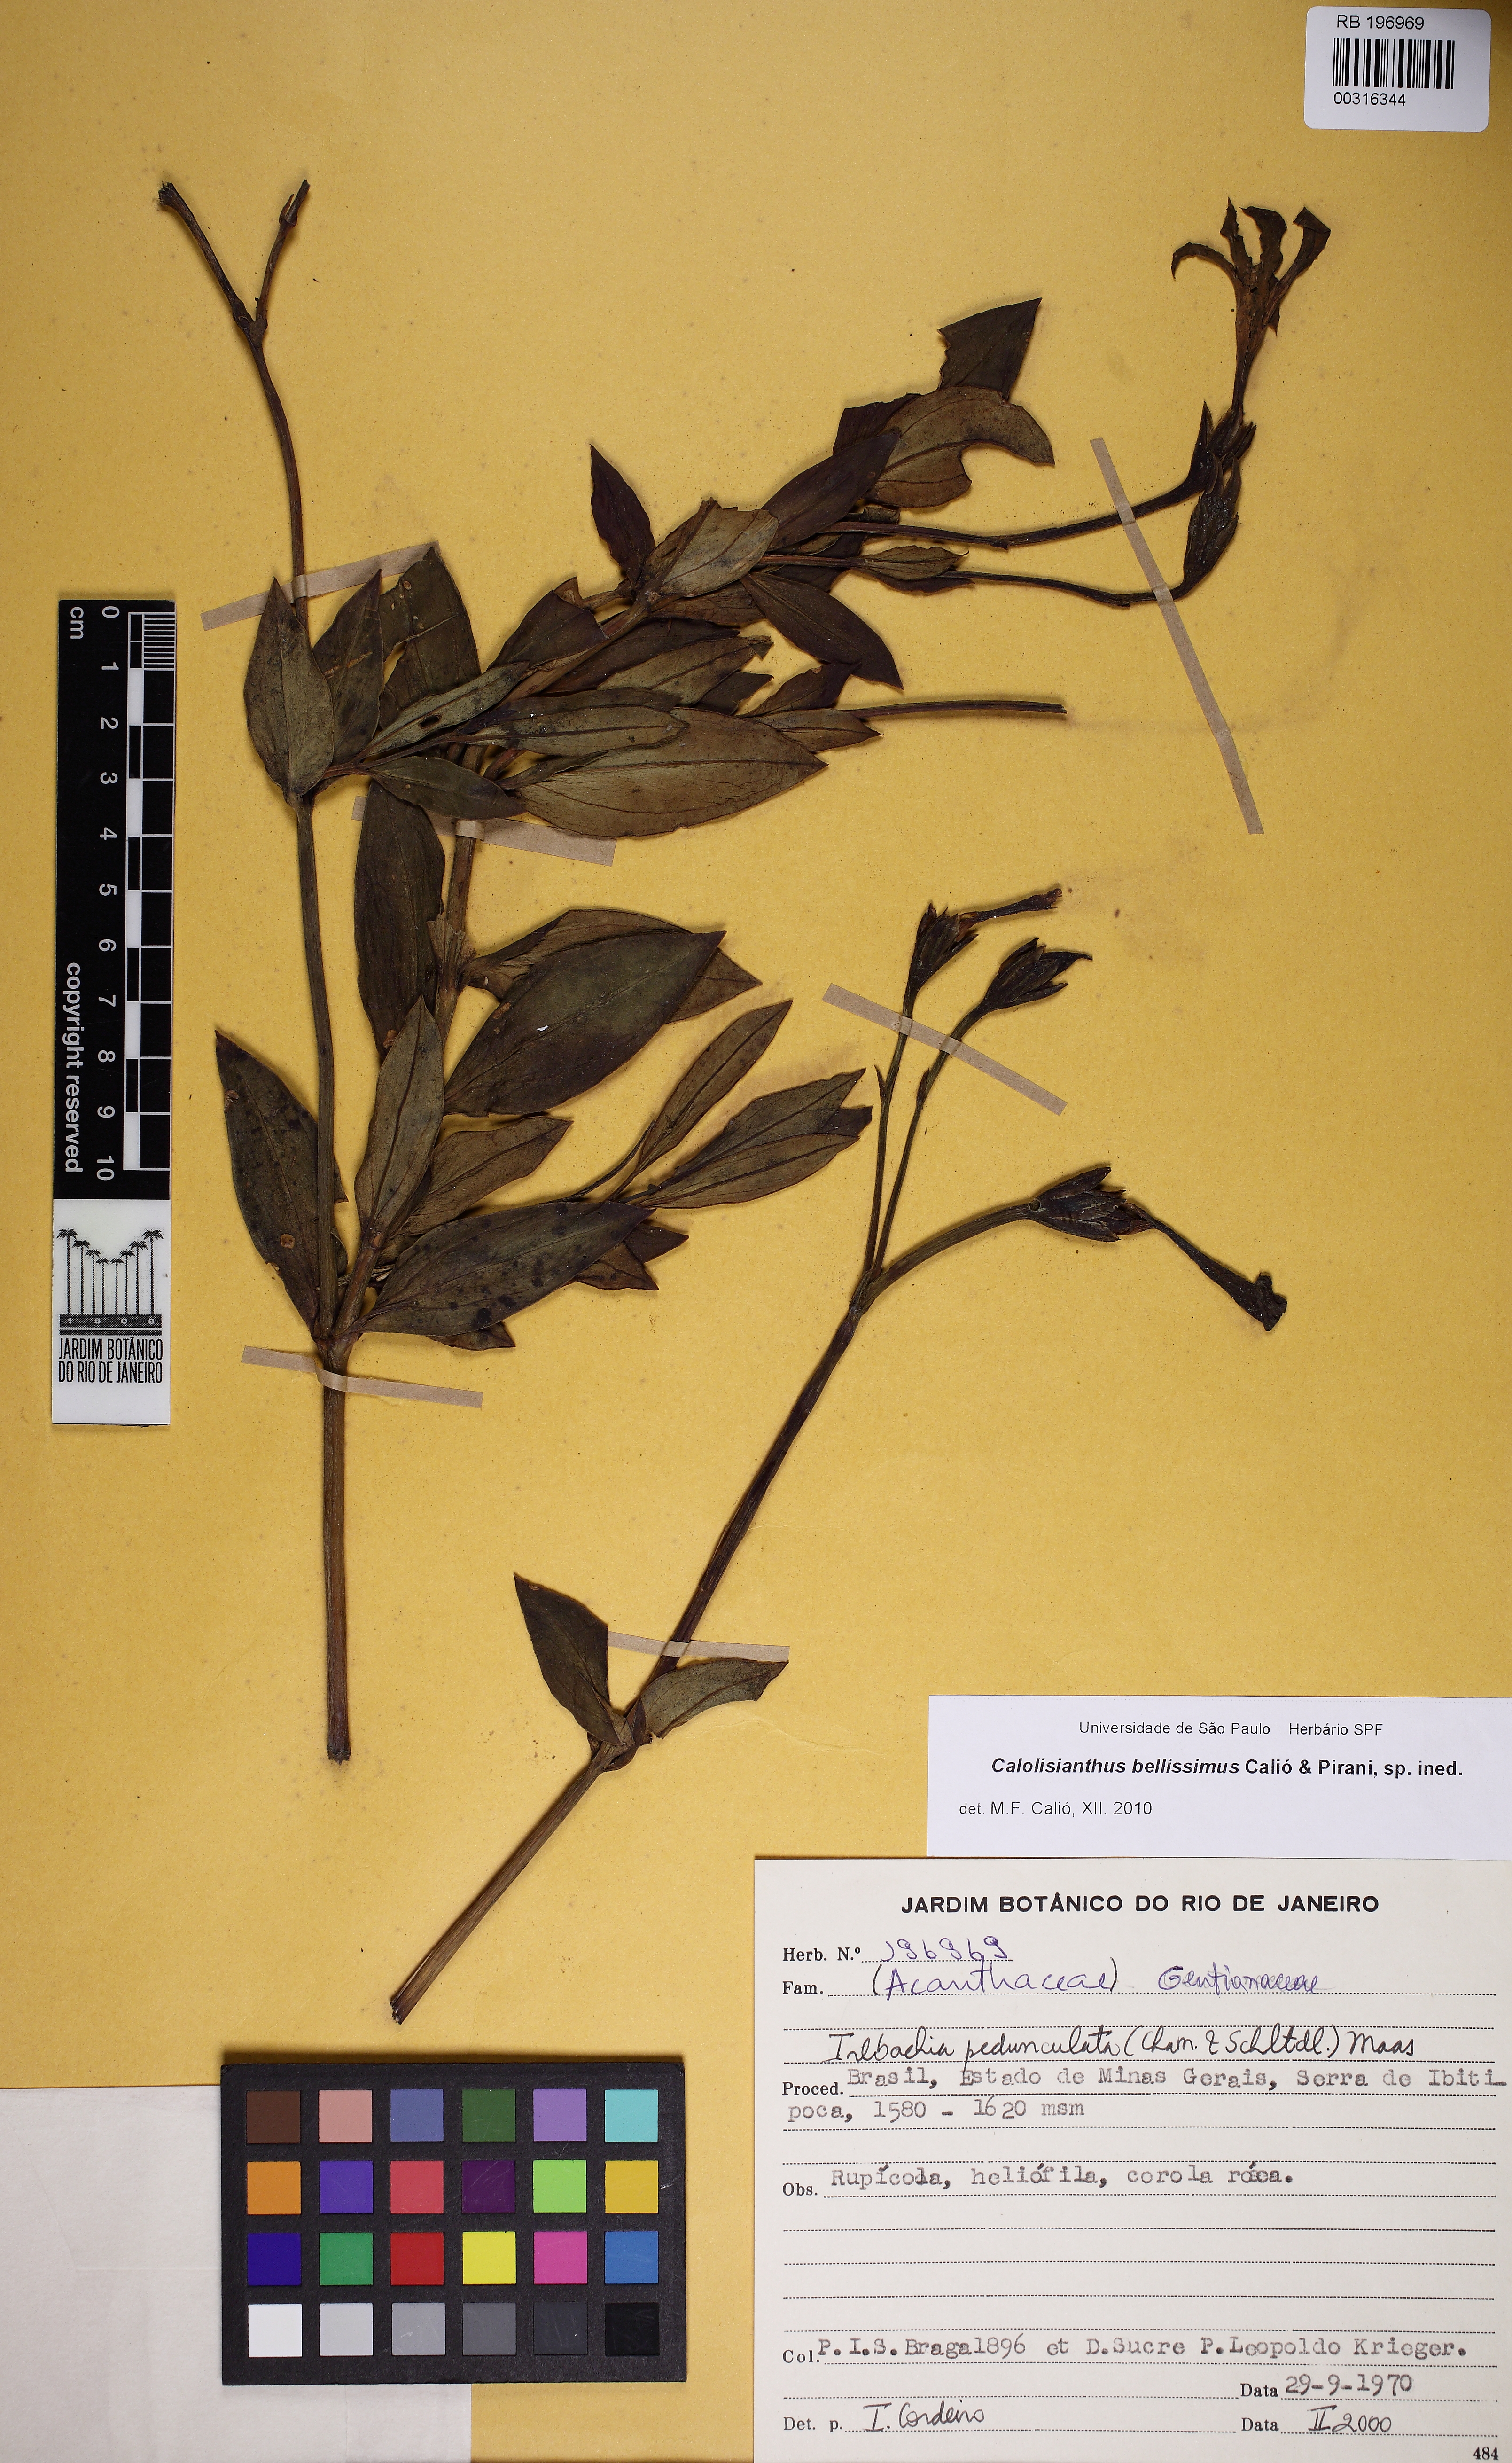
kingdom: Plantae
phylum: Tracheophyta
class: Magnoliopsida
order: Gentianales
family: Gentianaceae
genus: Calolisianthus
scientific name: Calolisianthus
